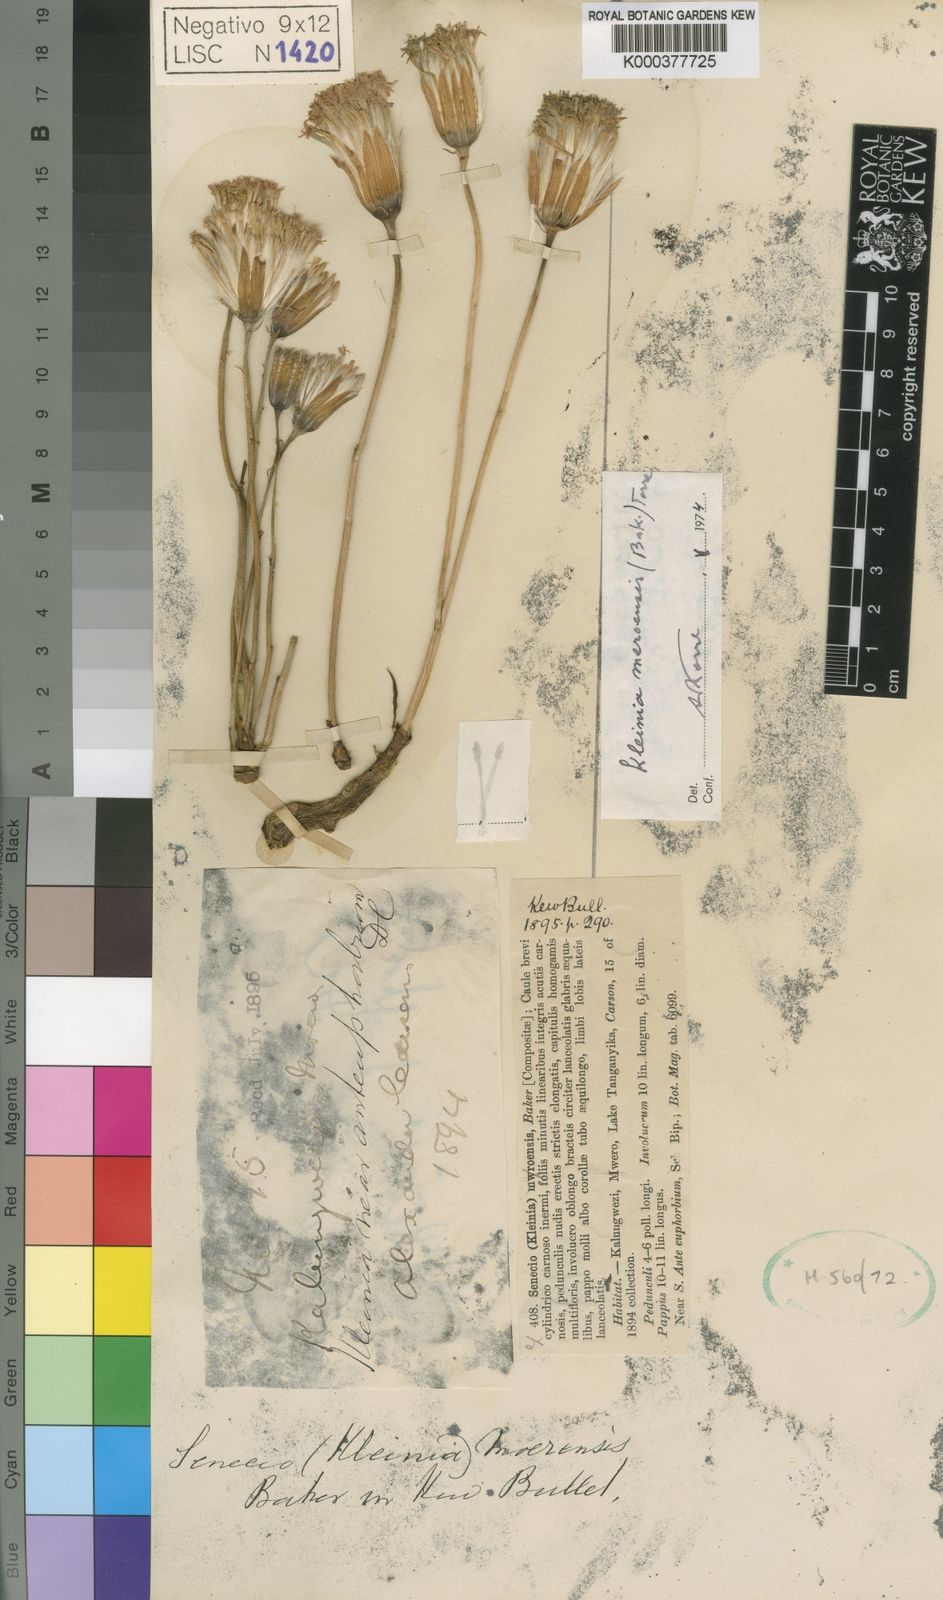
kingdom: Plantae
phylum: Tracheophyta
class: Magnoliopsida
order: Asterales
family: Asteraceae
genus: Kleinia
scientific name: Kleinia mweroensis
